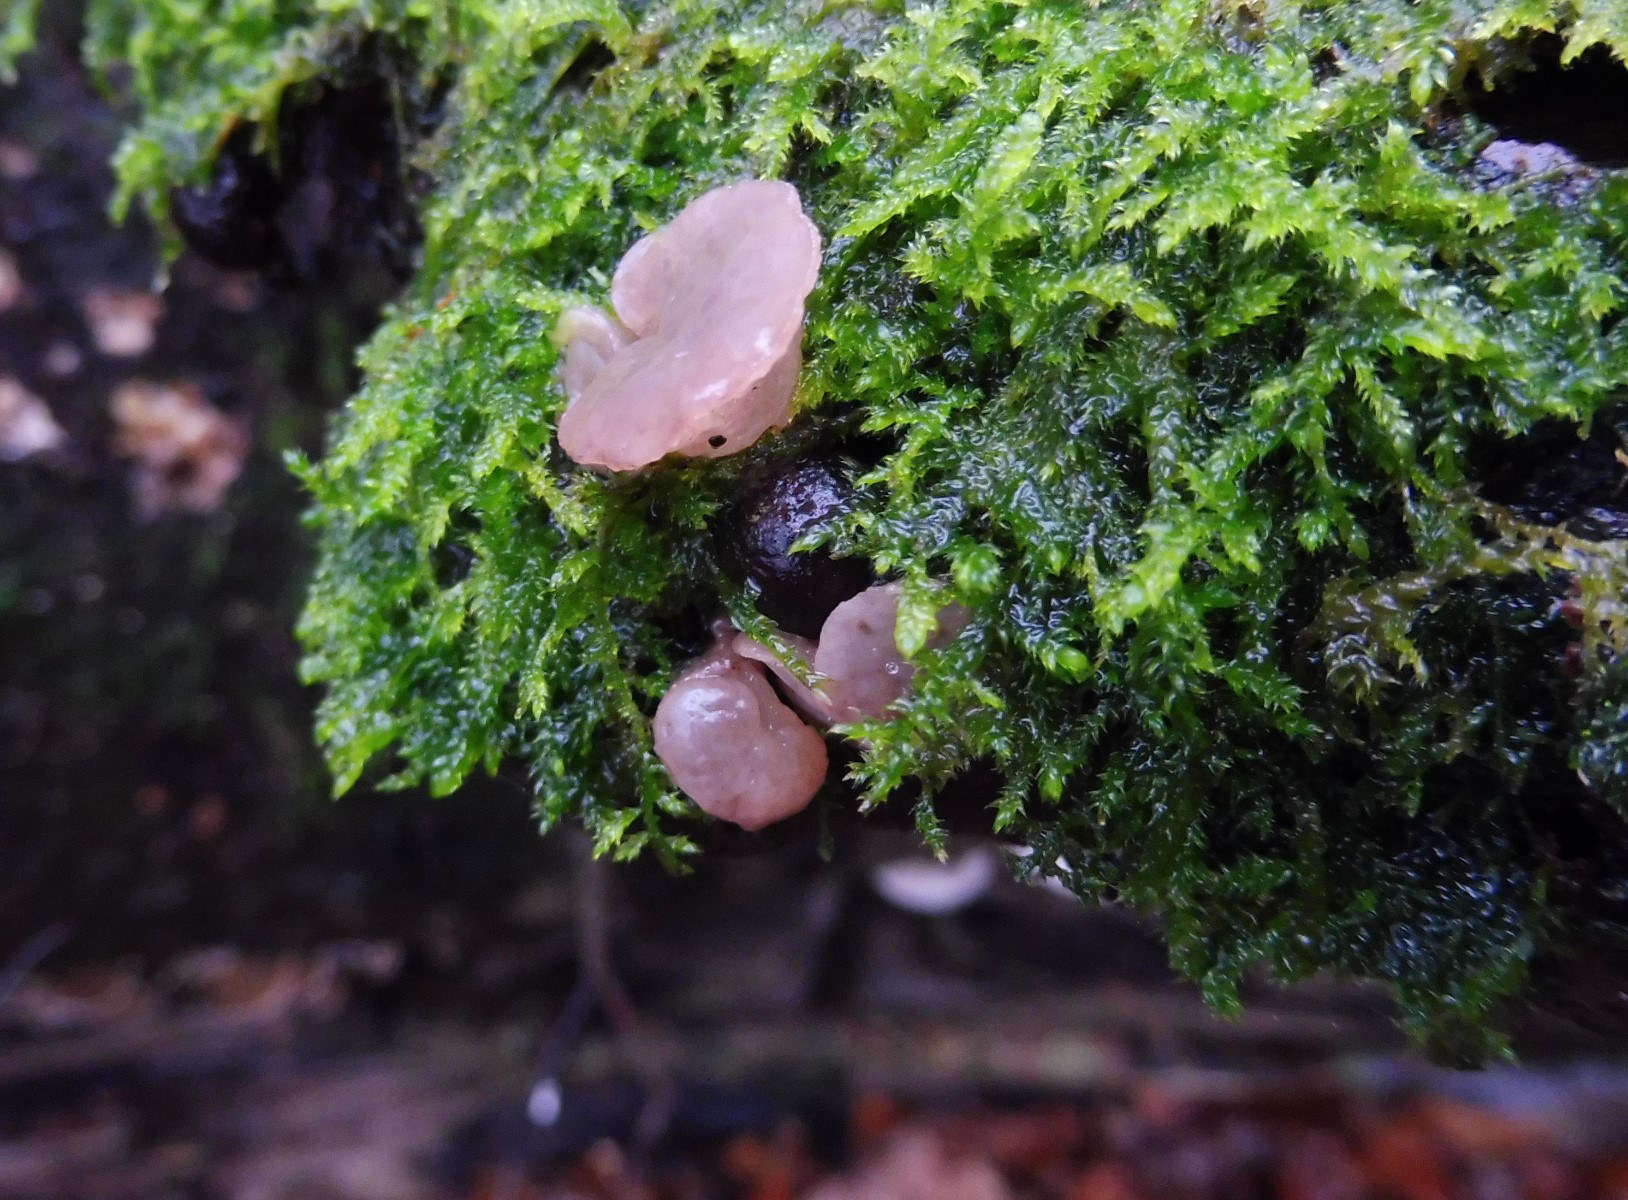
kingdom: Fungi
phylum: Ascomycota
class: Leotiomycetes
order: Helotiales
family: Gelatinodiscaceae
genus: Neobulgaria
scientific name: Neobulgaria pura
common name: bleg bævreskive
